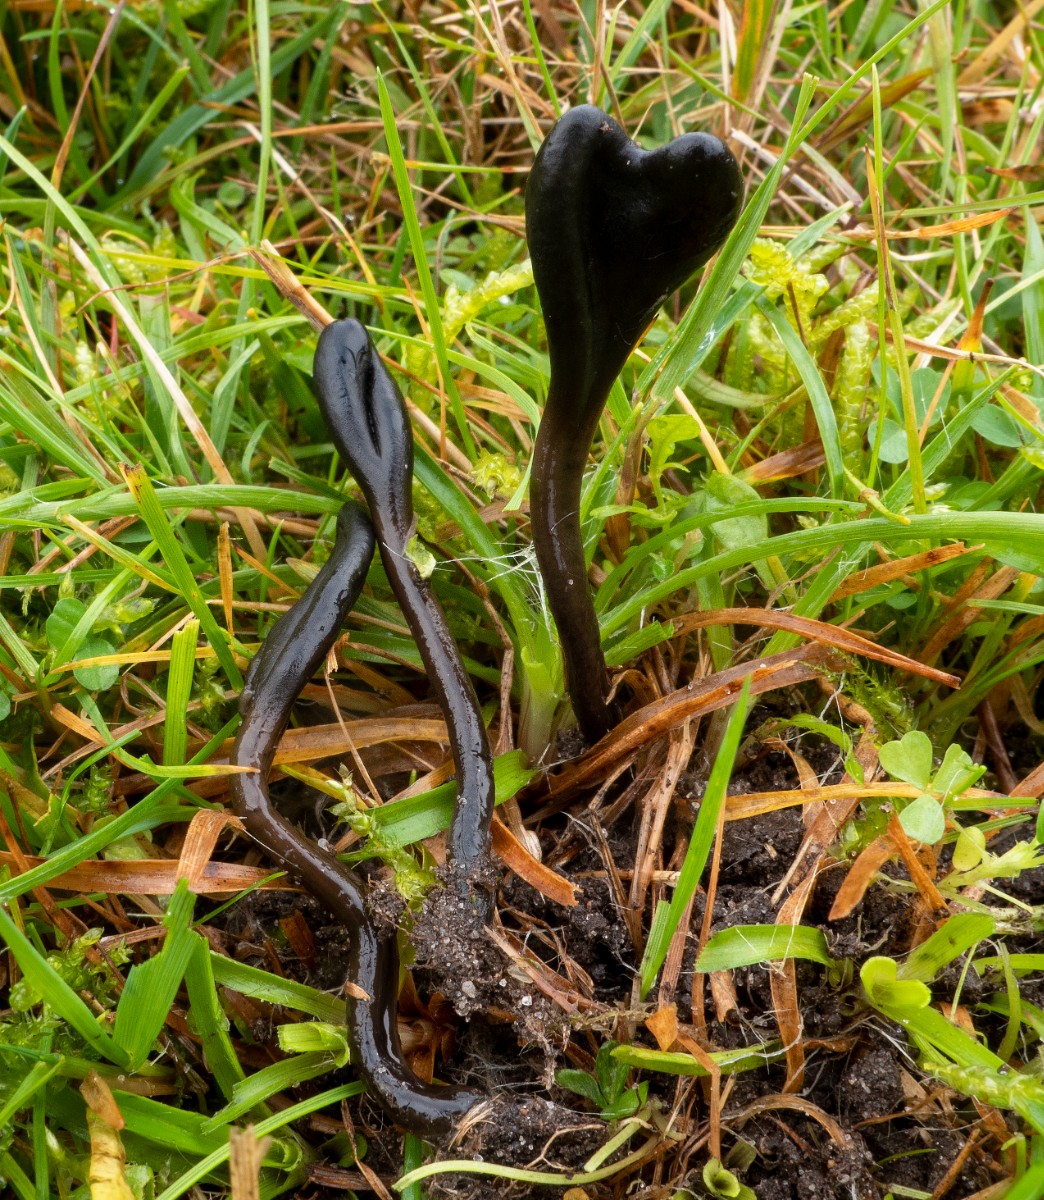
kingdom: Fungi
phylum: Ascomycota
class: Geoglossomycetes
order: Geoglossales
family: Geoglossaceae
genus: Glutinoglossum
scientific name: Glutinoglossum glutinosum
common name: slimet jordtunge
